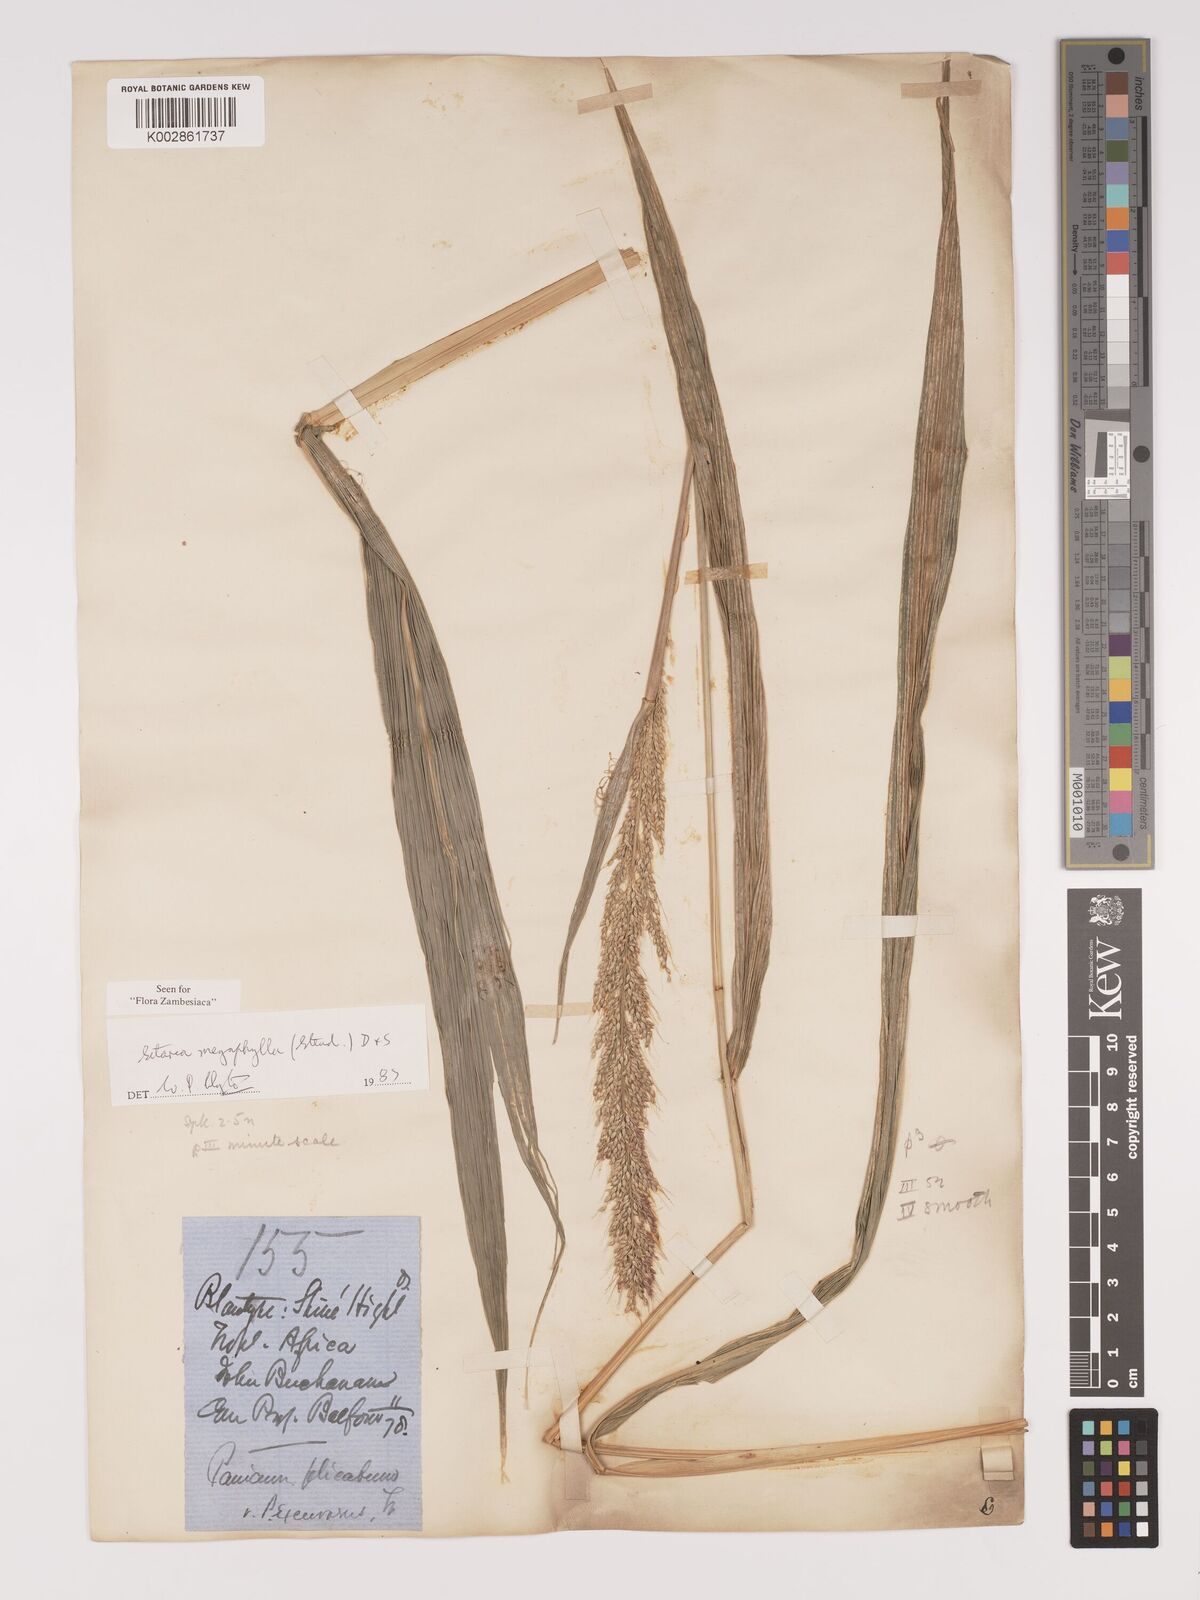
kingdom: Plantae
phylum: Tracheophyta
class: Liliopsida
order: Poales
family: Poaceae
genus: Setaria
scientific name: Setaria megaphylla
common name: Bigleaf bristlegrass
